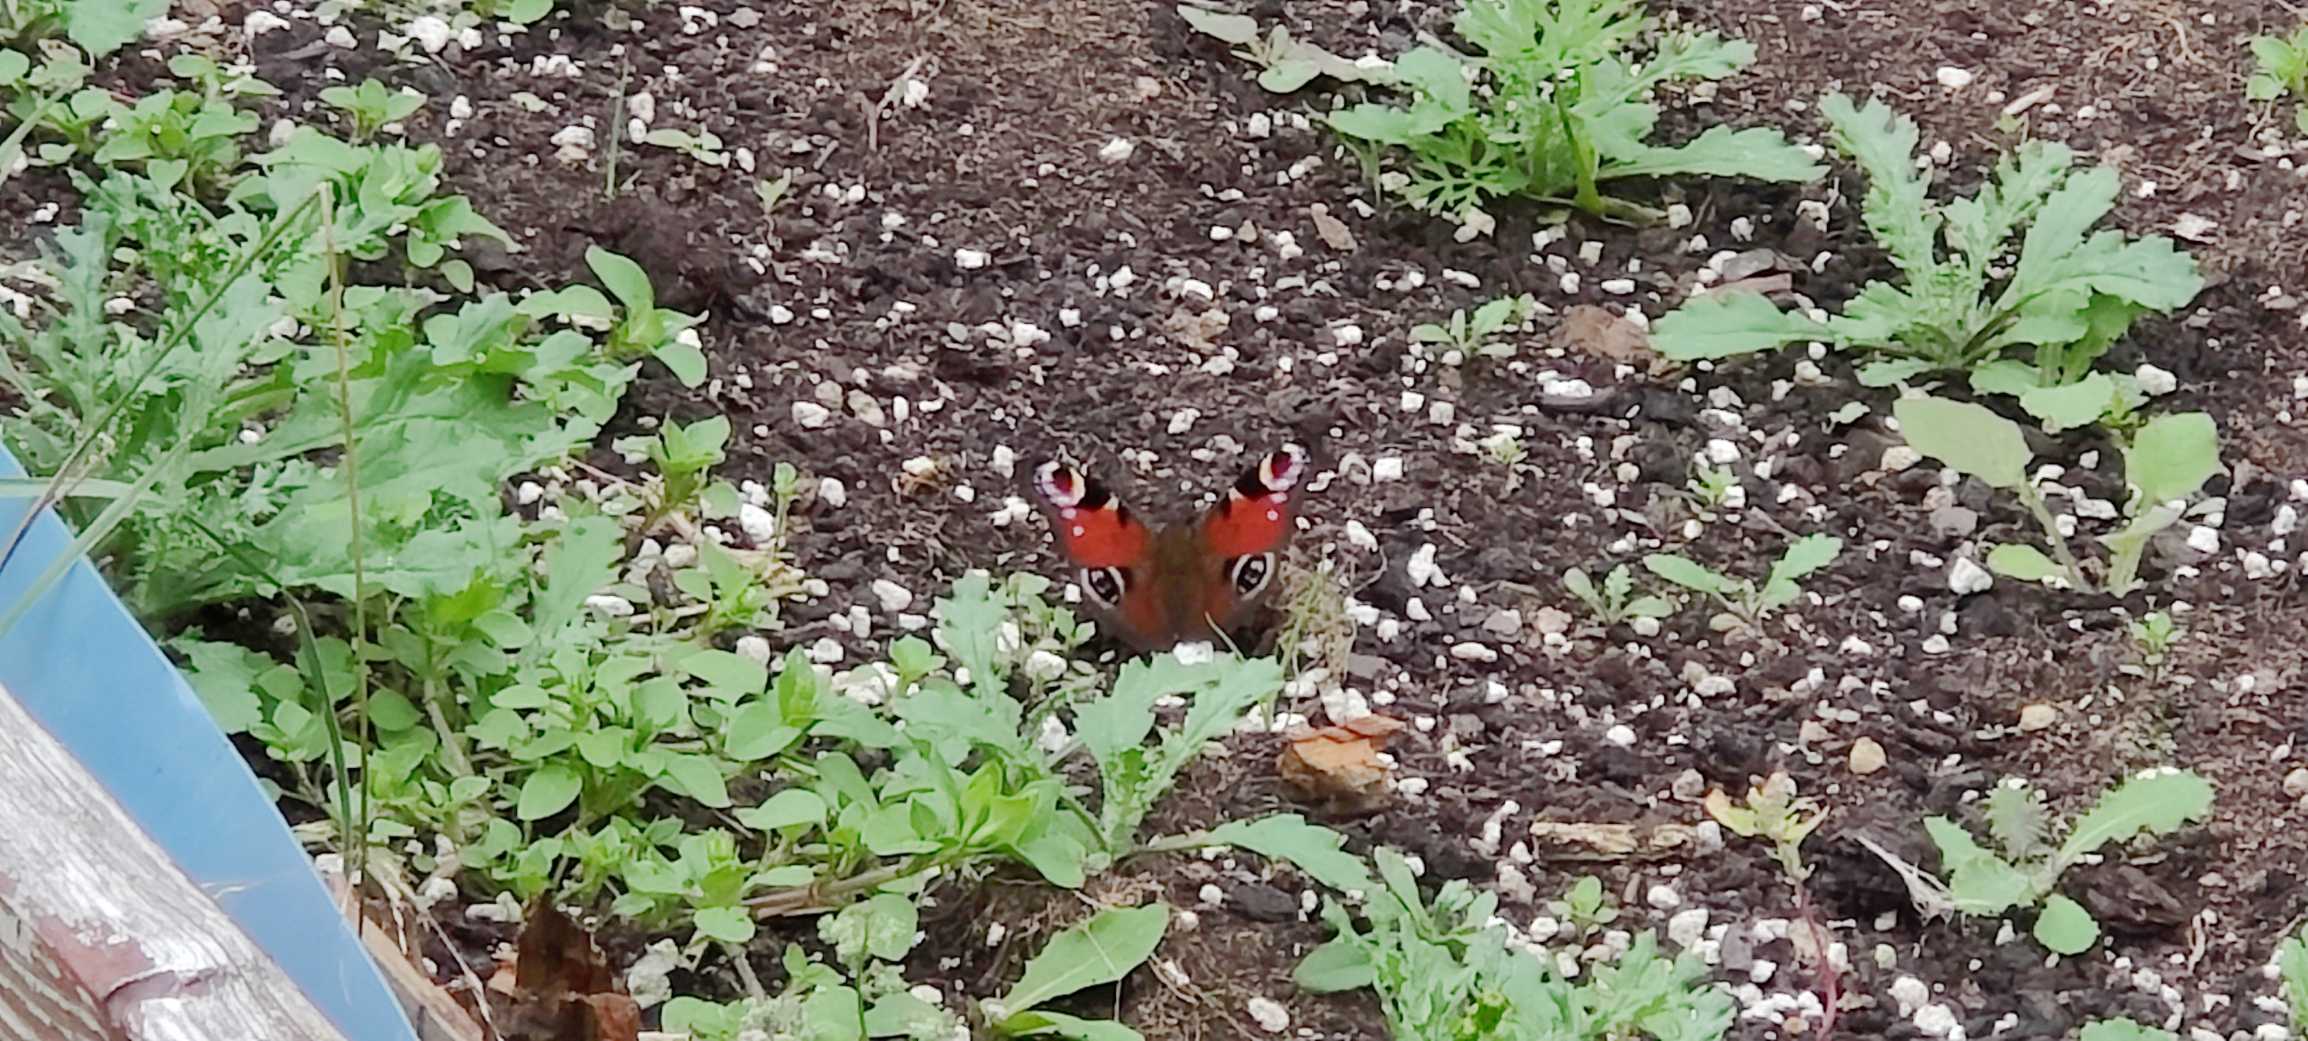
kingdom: Animalia
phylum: Arthropoda
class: Insecta
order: Lepidoptera
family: Nymphalidae
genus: Aglais
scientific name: Aglais io
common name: Dagpåfugleøje
